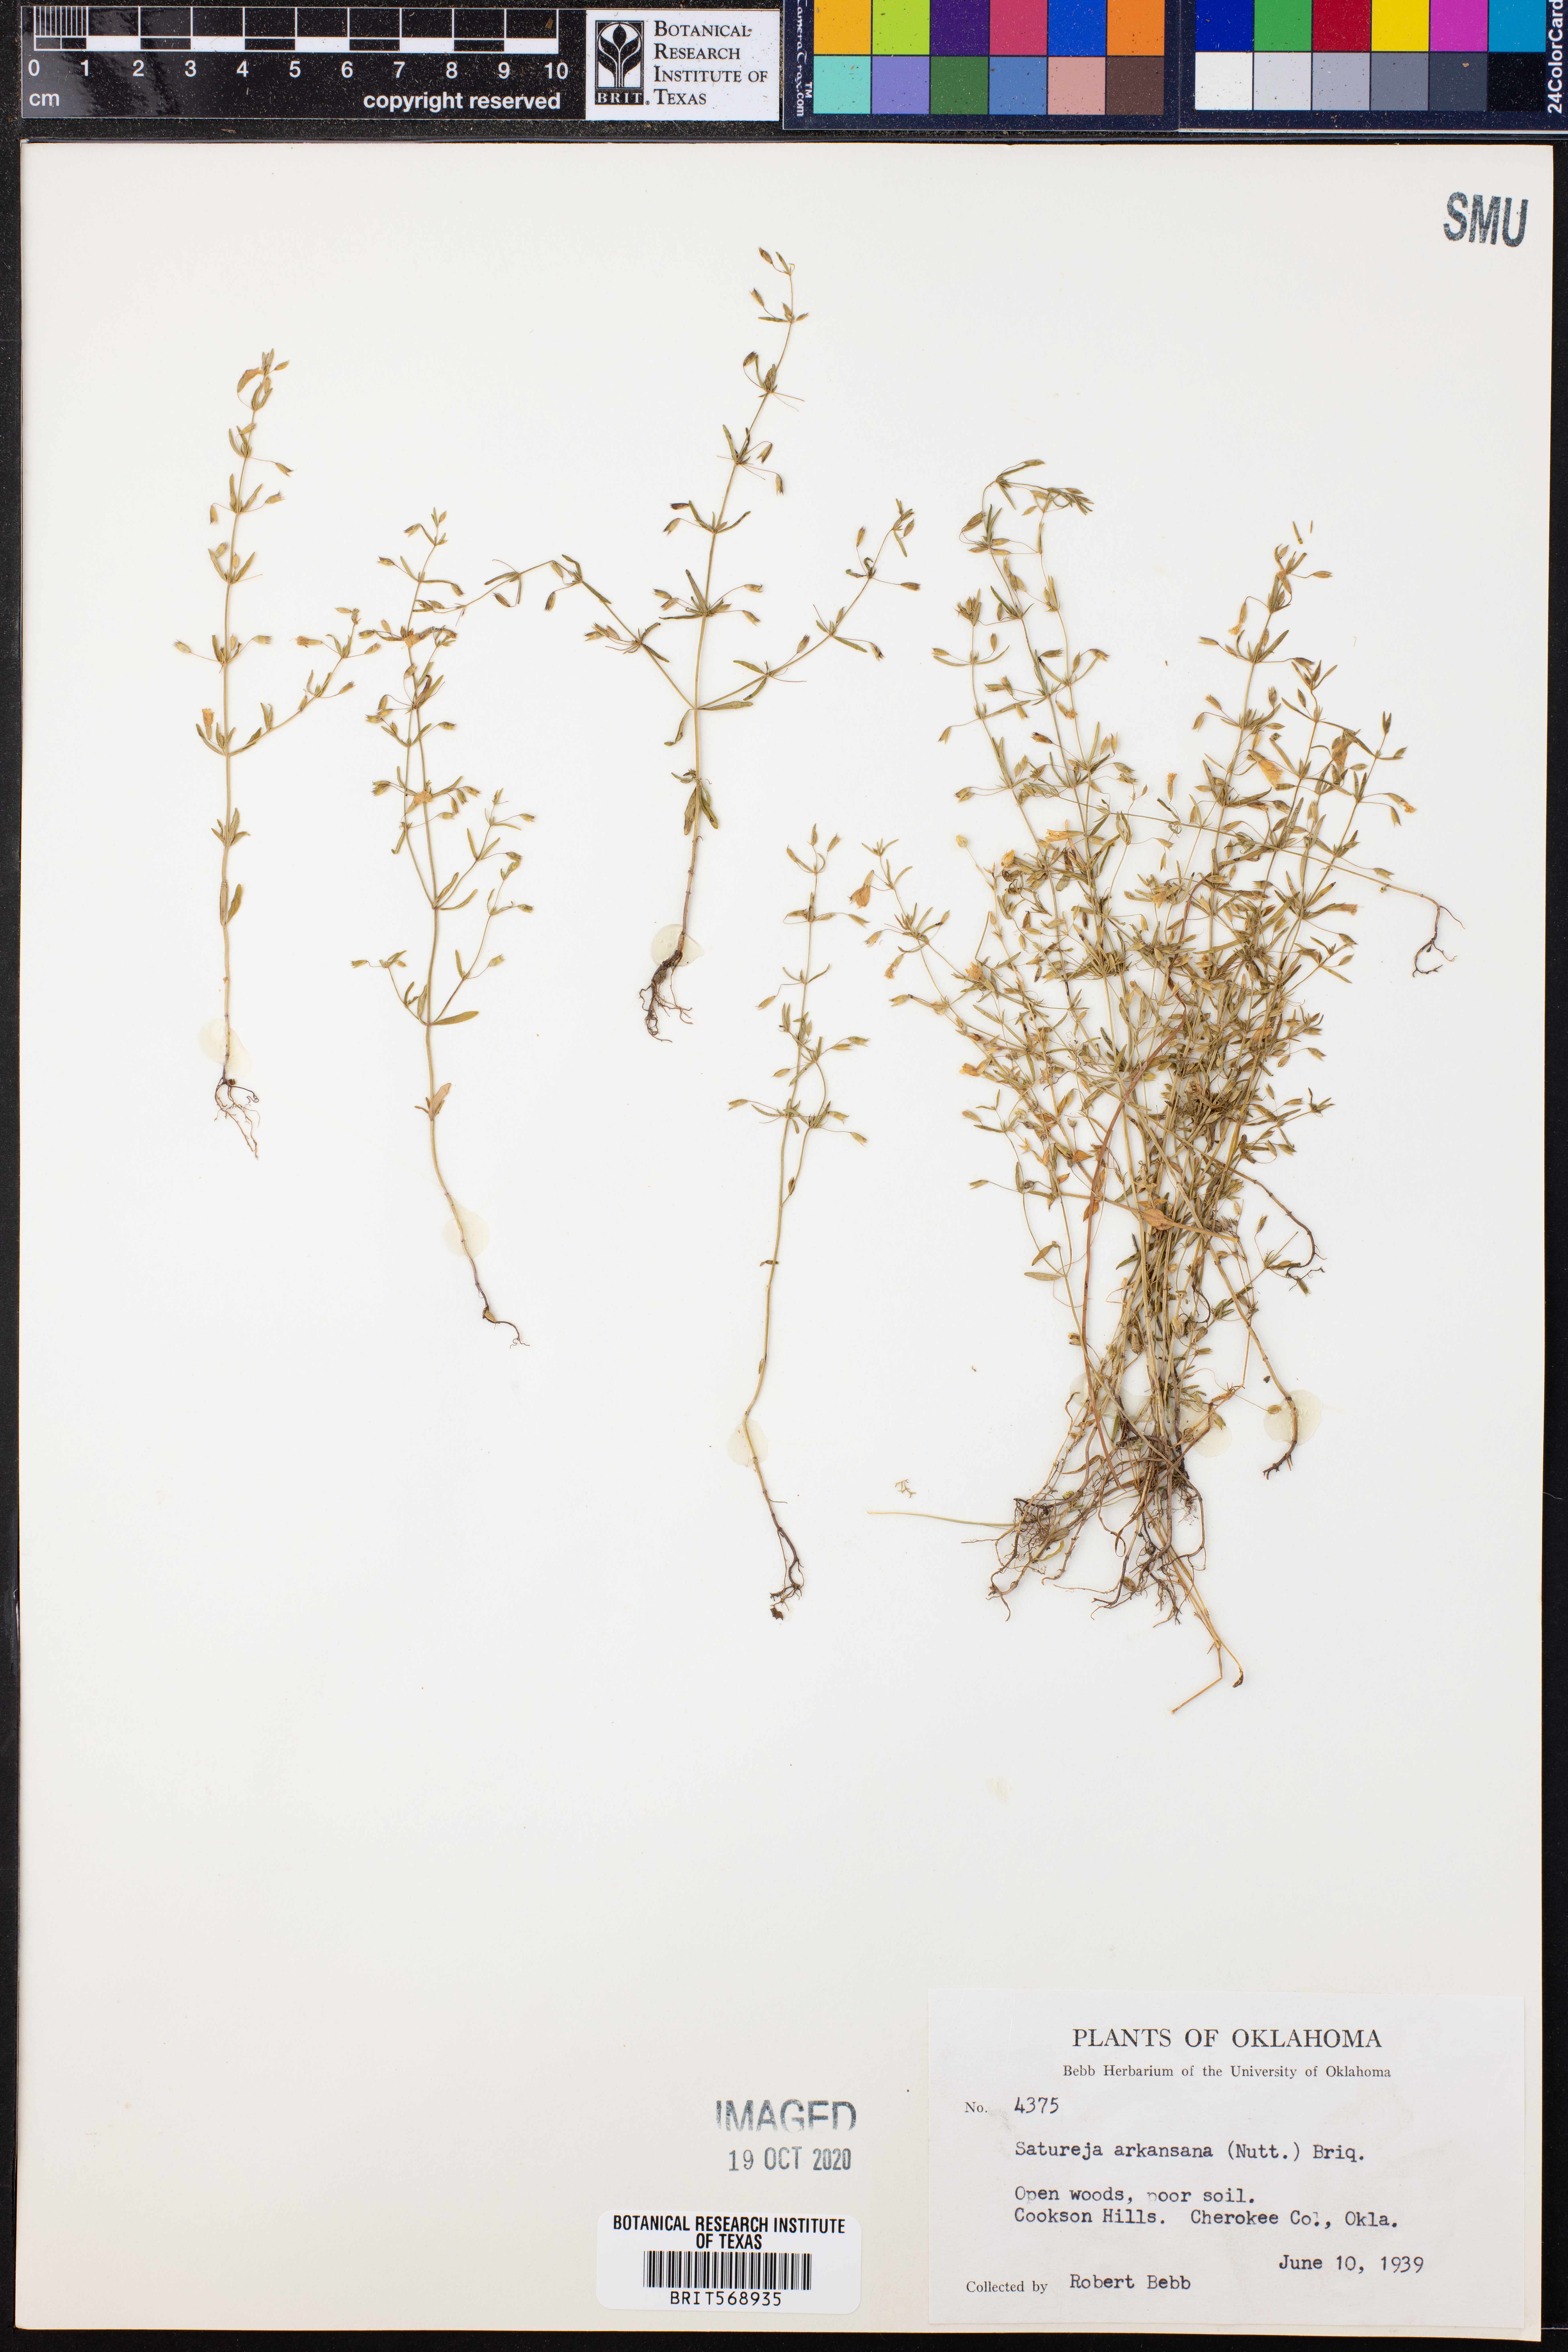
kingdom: Plantae
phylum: Tracheophyta
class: Magnoliopsida
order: Lamiales
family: Lamiaceae
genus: Clinopodium
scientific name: Clinopodium arkansanum
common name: Limestone calamint
